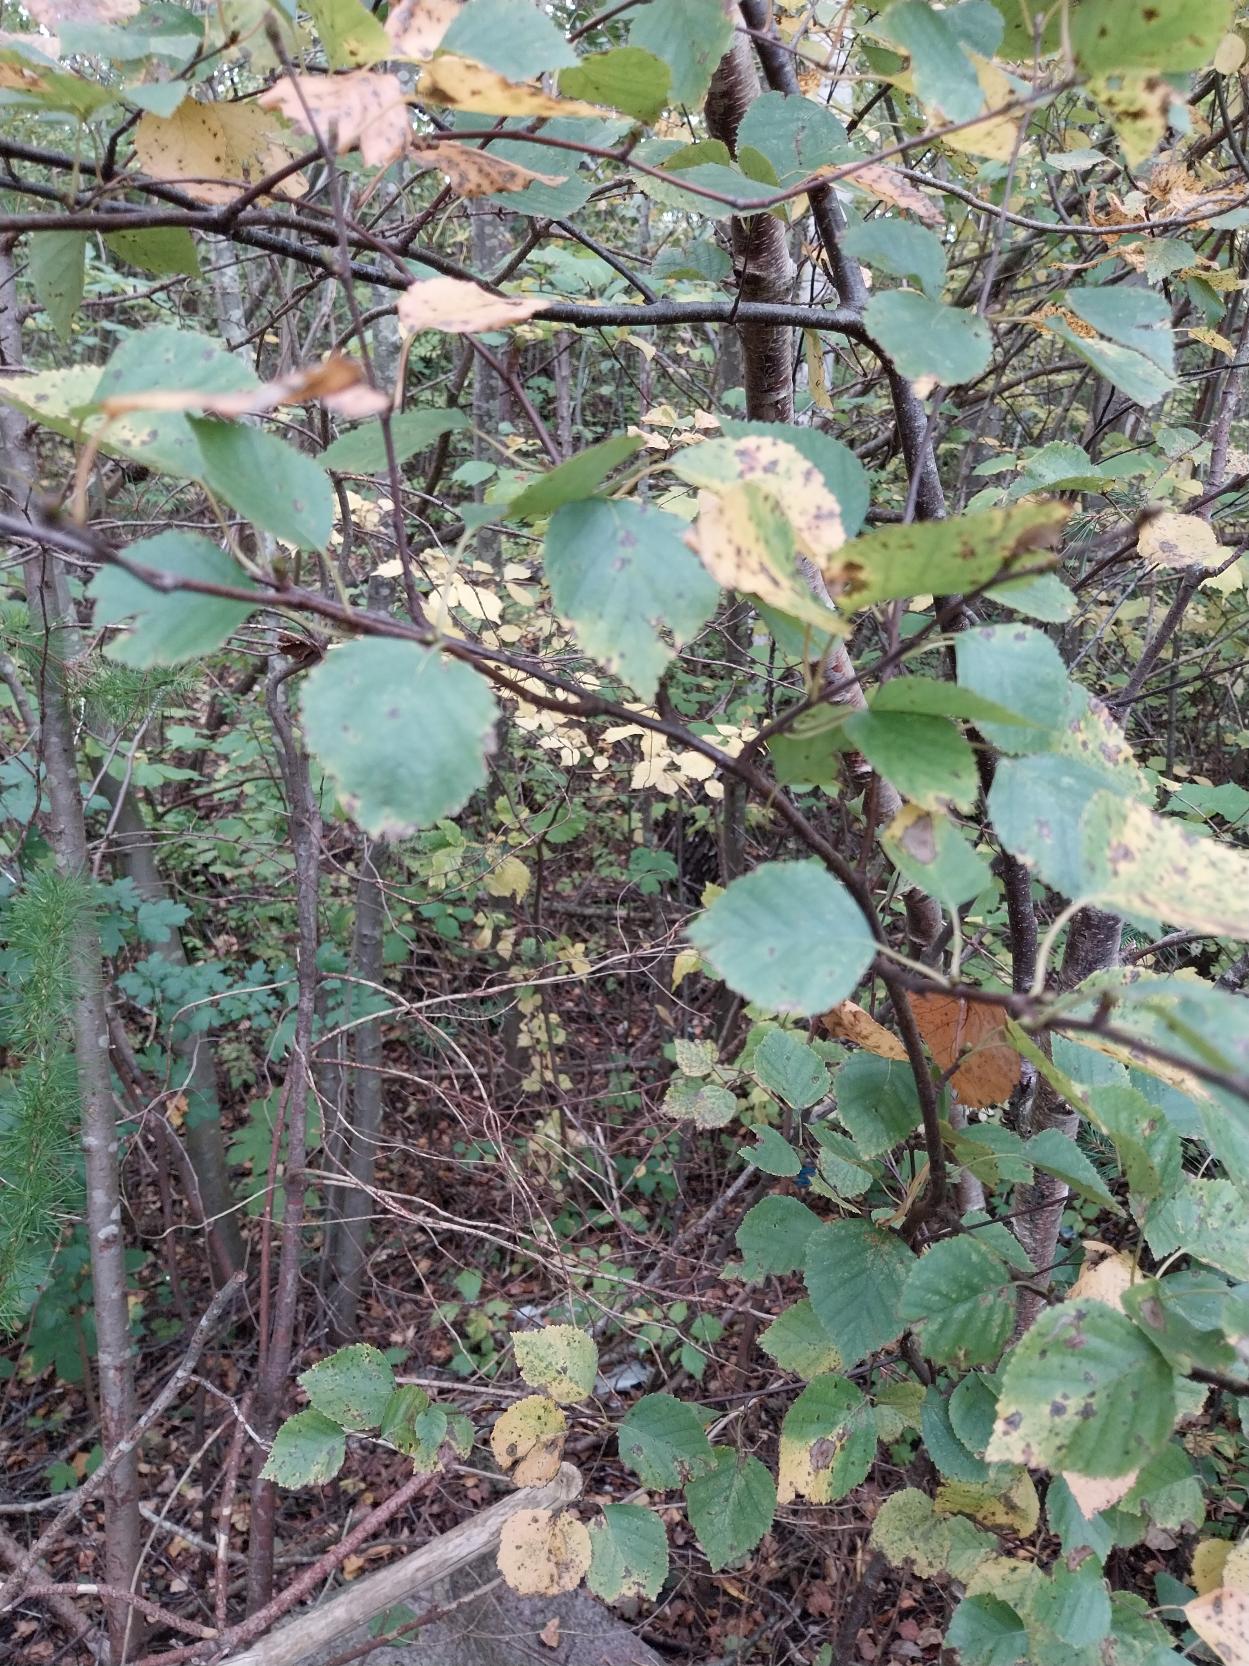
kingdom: Plantae
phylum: Tracheophyta
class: Magnoliopsida
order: Fagales
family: Betulaceae
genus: Betula
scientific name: Betula pendula
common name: Vorte-birk
